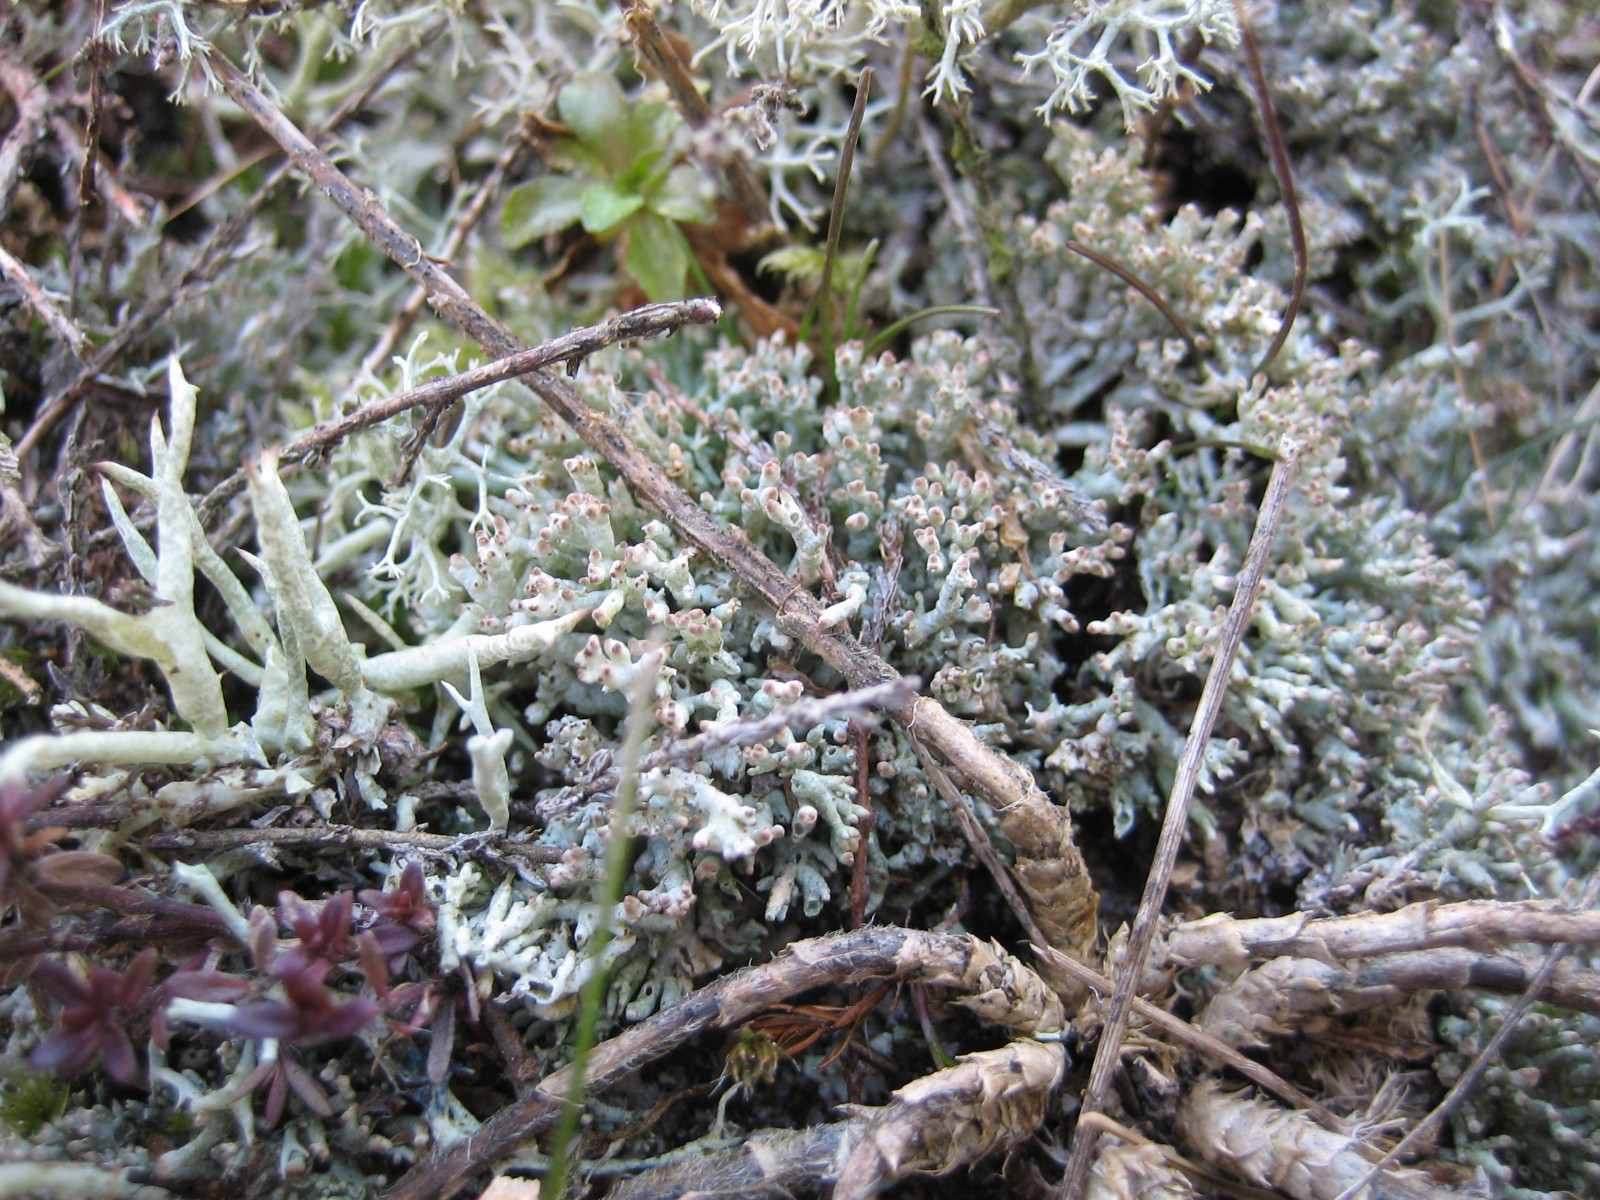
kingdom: Fungi
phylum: Ascomycota
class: Lecanoromycetes
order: Lecanorales
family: Cladoniaceae
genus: Pycnothelia
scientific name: Pycnothelia papillaria
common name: blødvortet knoplav
